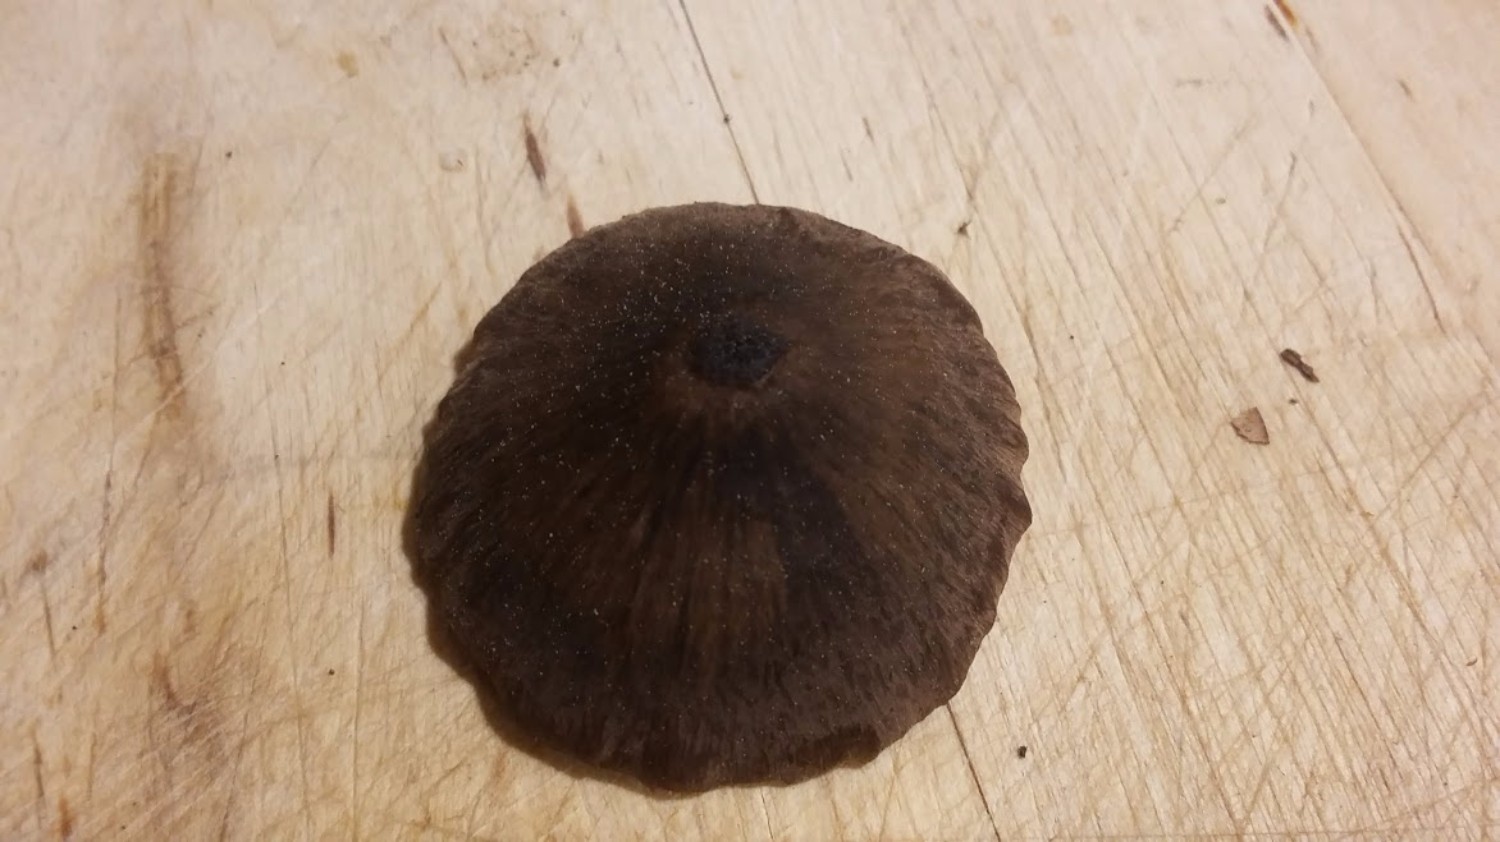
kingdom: Fungi
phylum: Basidiomycota
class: Agaricomycetes
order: Agaricales
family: Entolomataceae
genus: Entoloma
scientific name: Entoloma
